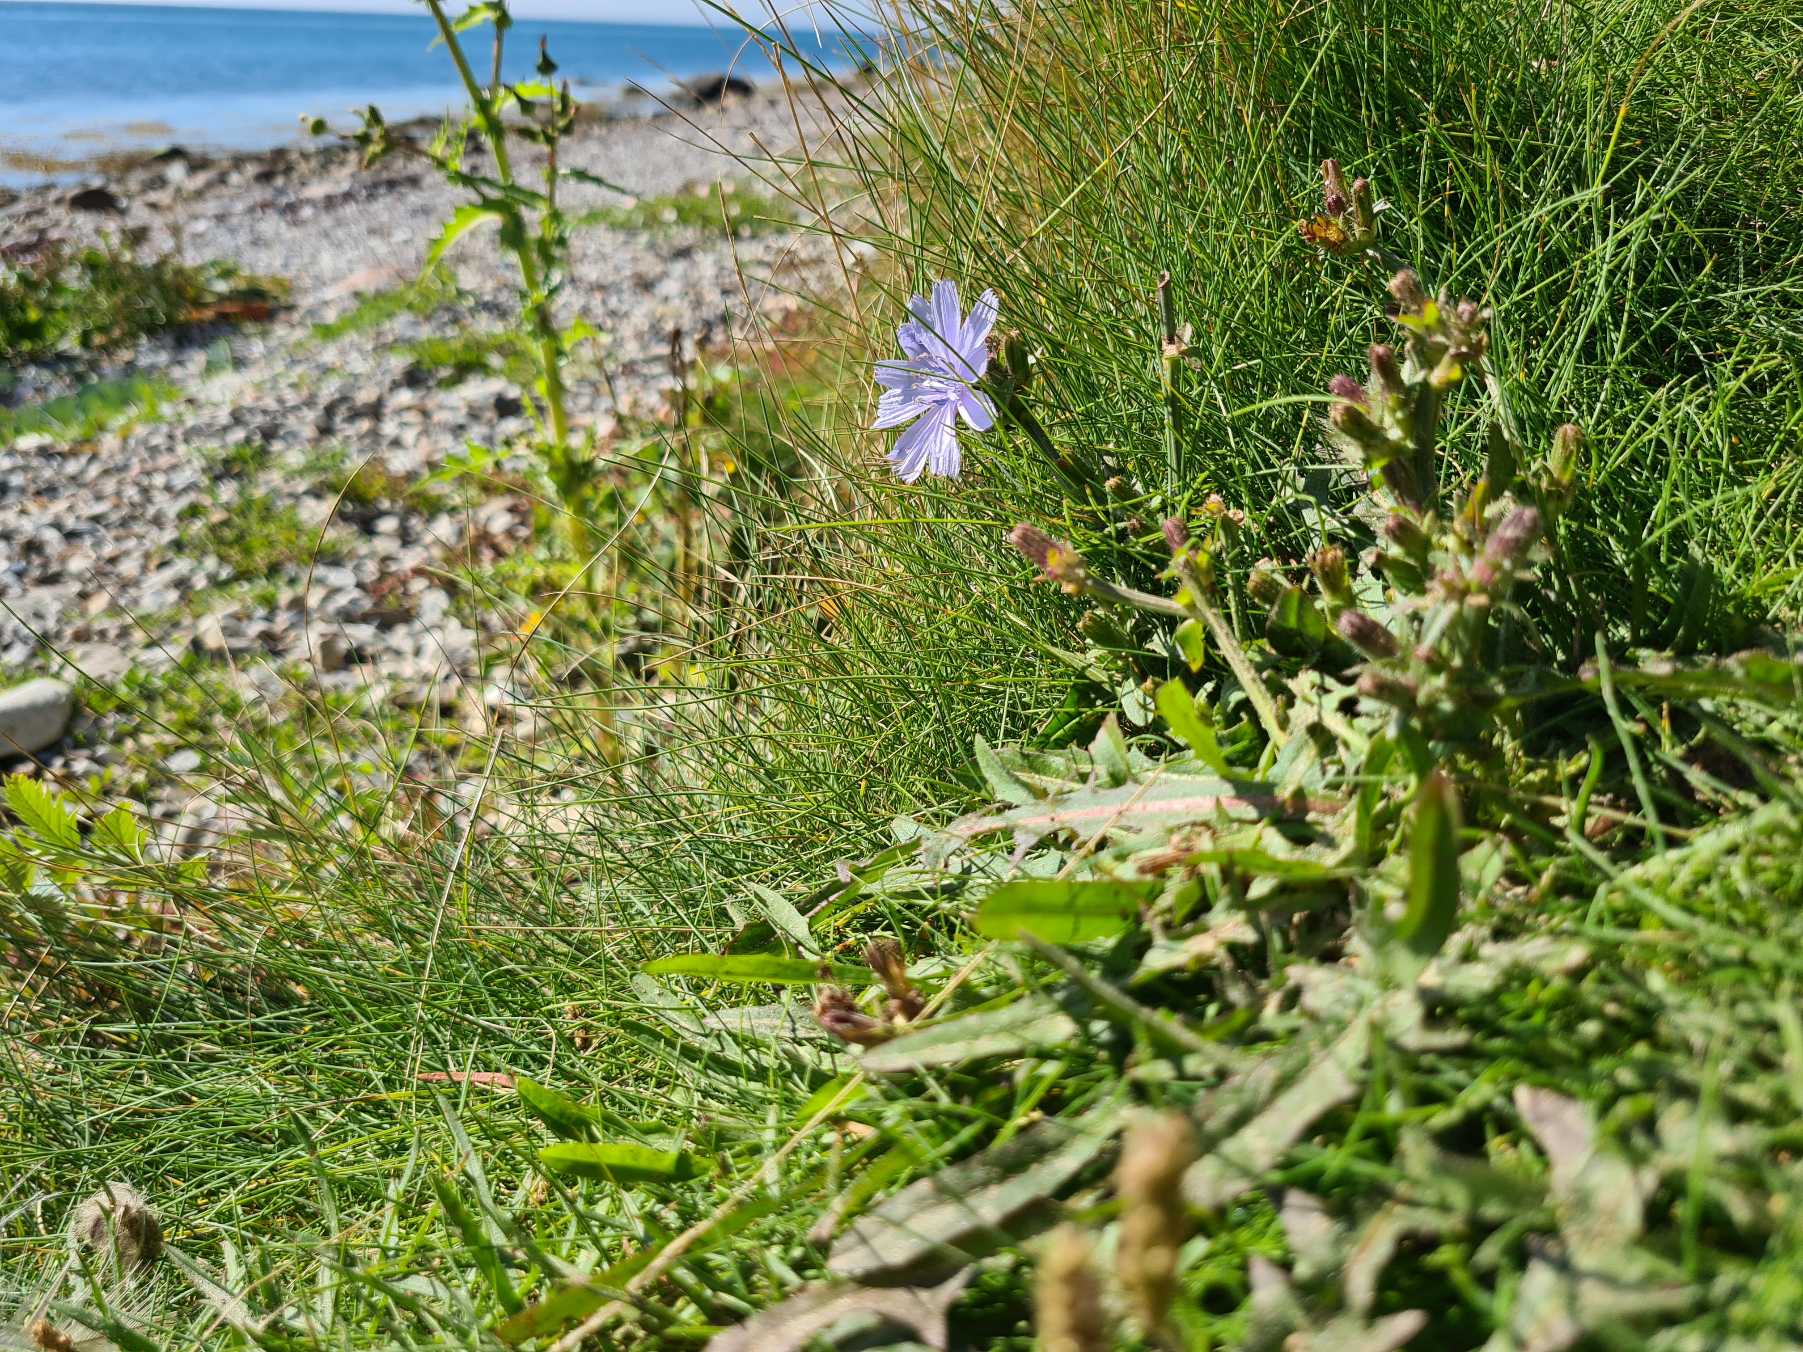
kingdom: Plantae
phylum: Tracheophyta
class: Magnoliopsida
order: Asterales
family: Asteraceae
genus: Cichorium
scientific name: Cichorium intybus
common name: Cikorie
